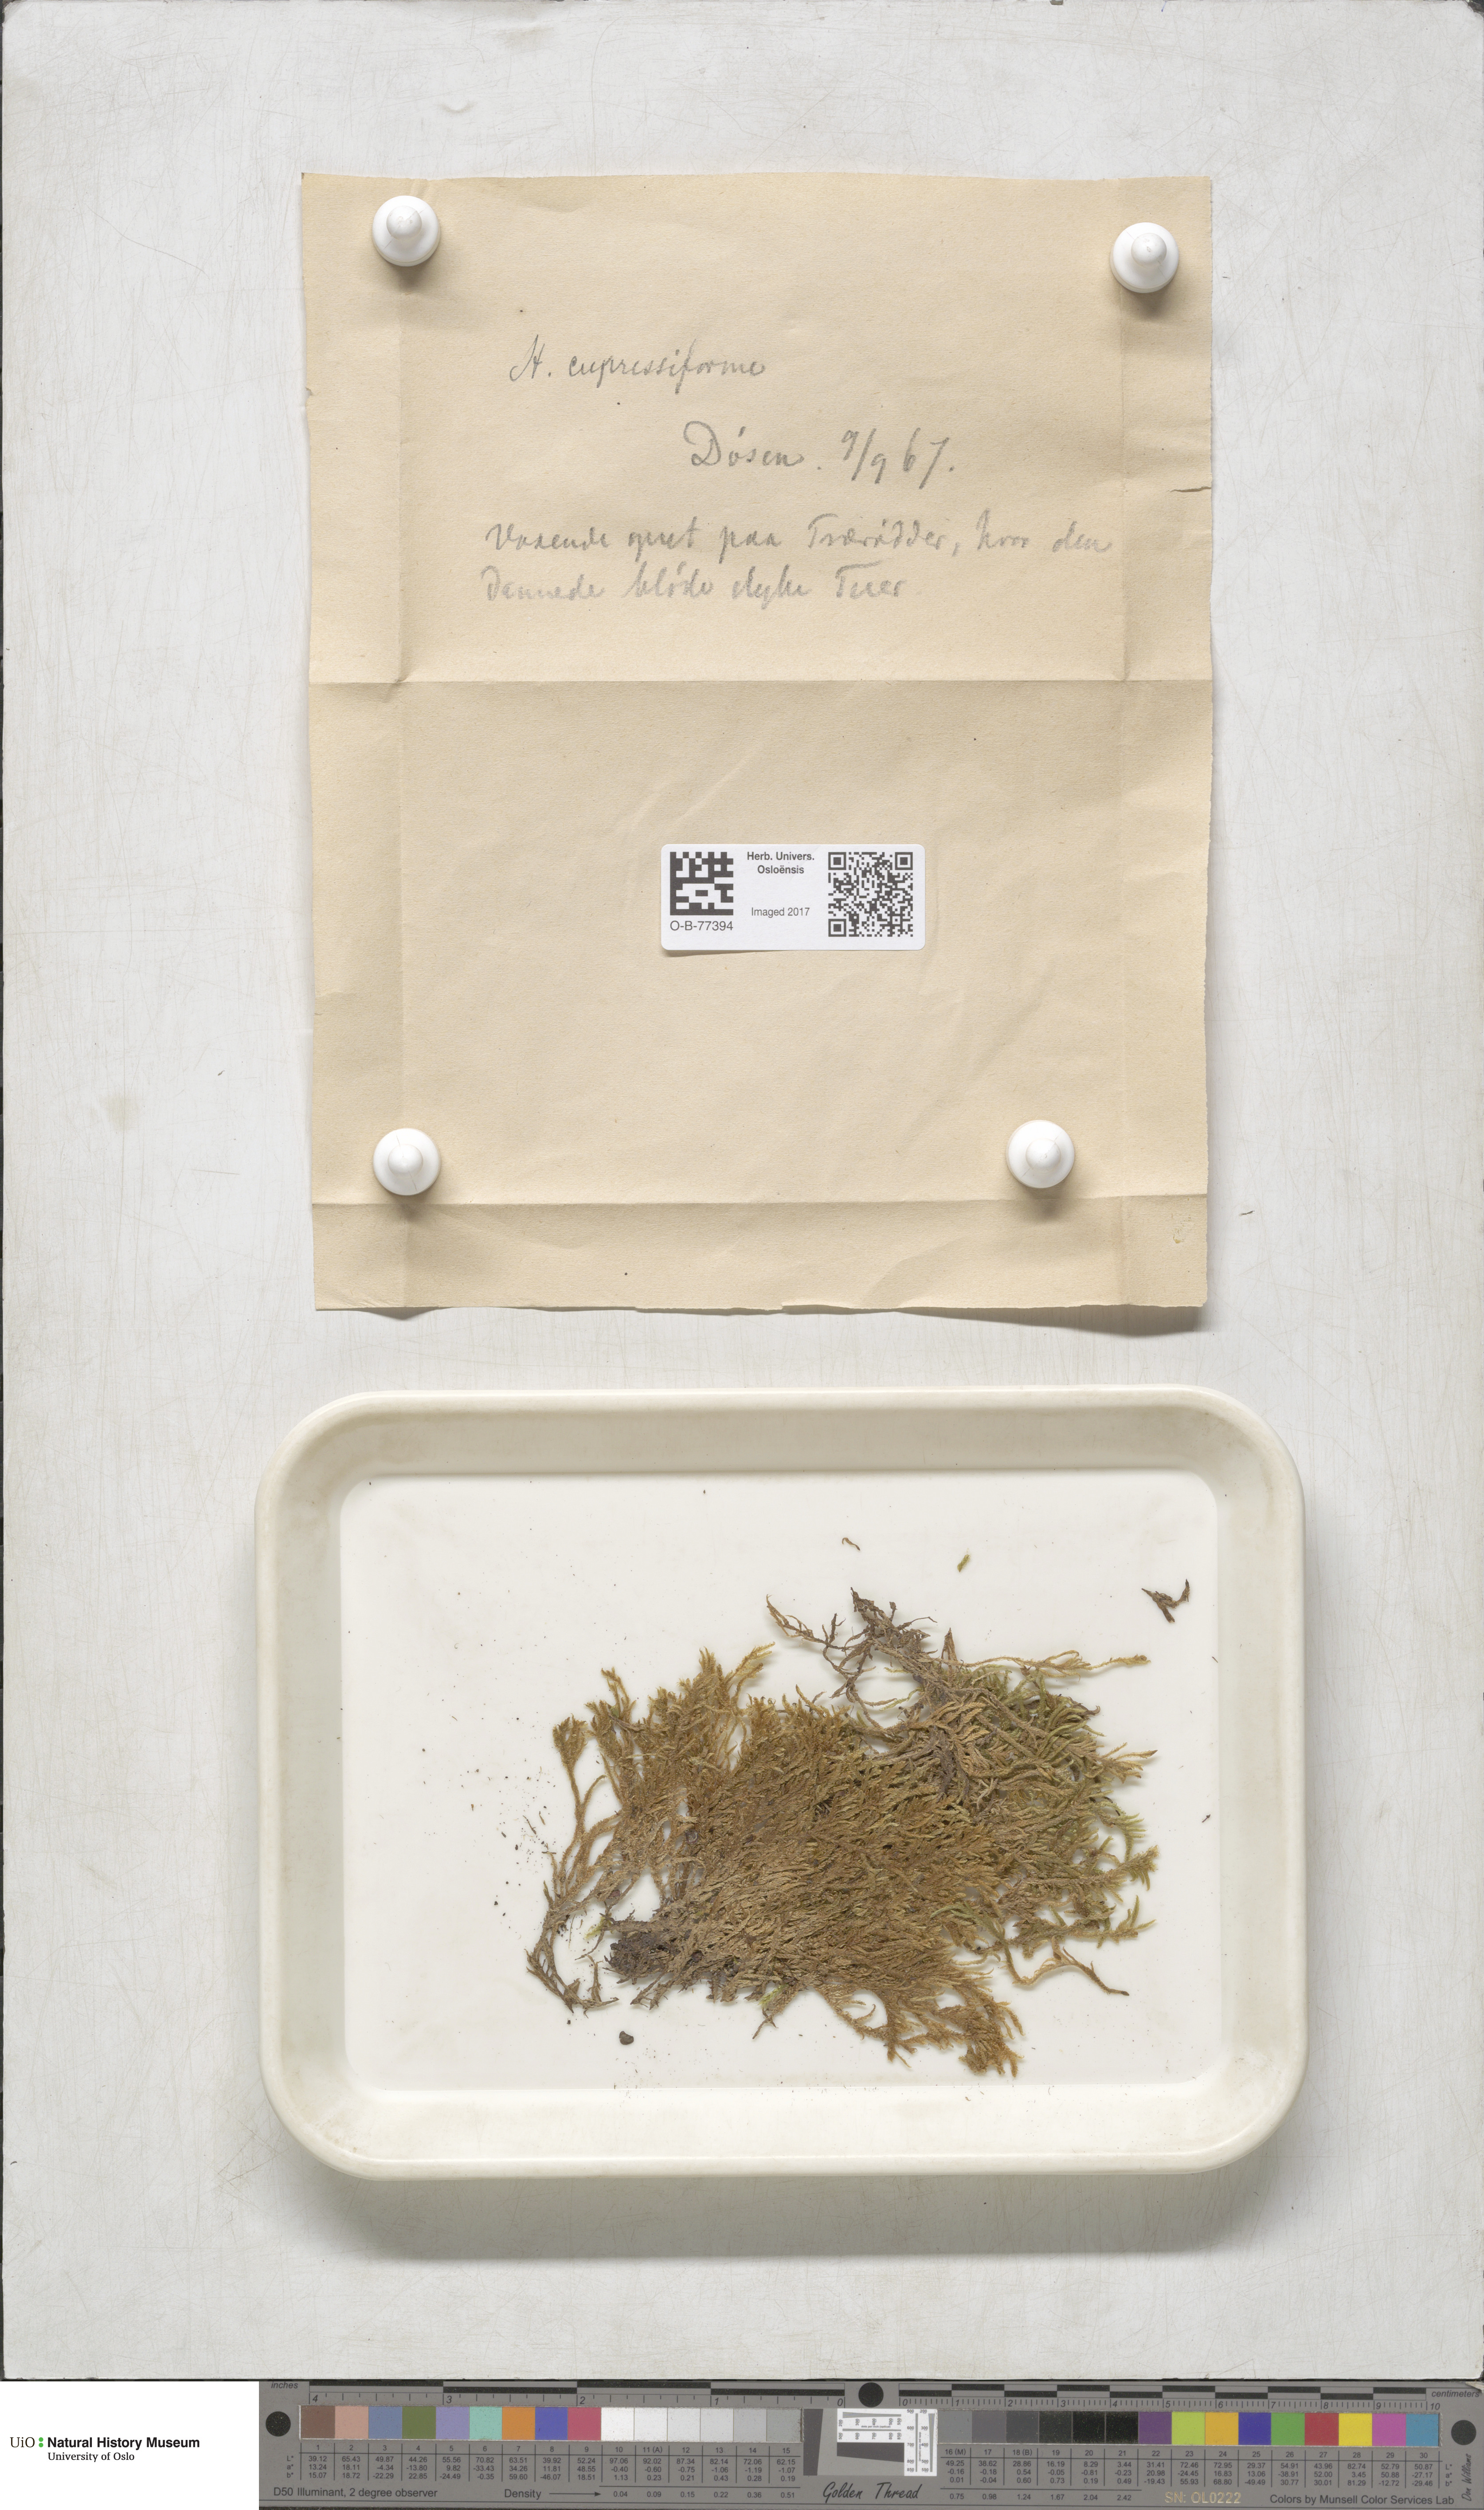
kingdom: Plantae
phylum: Bryophyta
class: Bryopsida
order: Hypnales
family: Hypnaceae
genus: Hypnum
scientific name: Hypnum cupressiforme
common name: Cypress-leaved plait-moss
